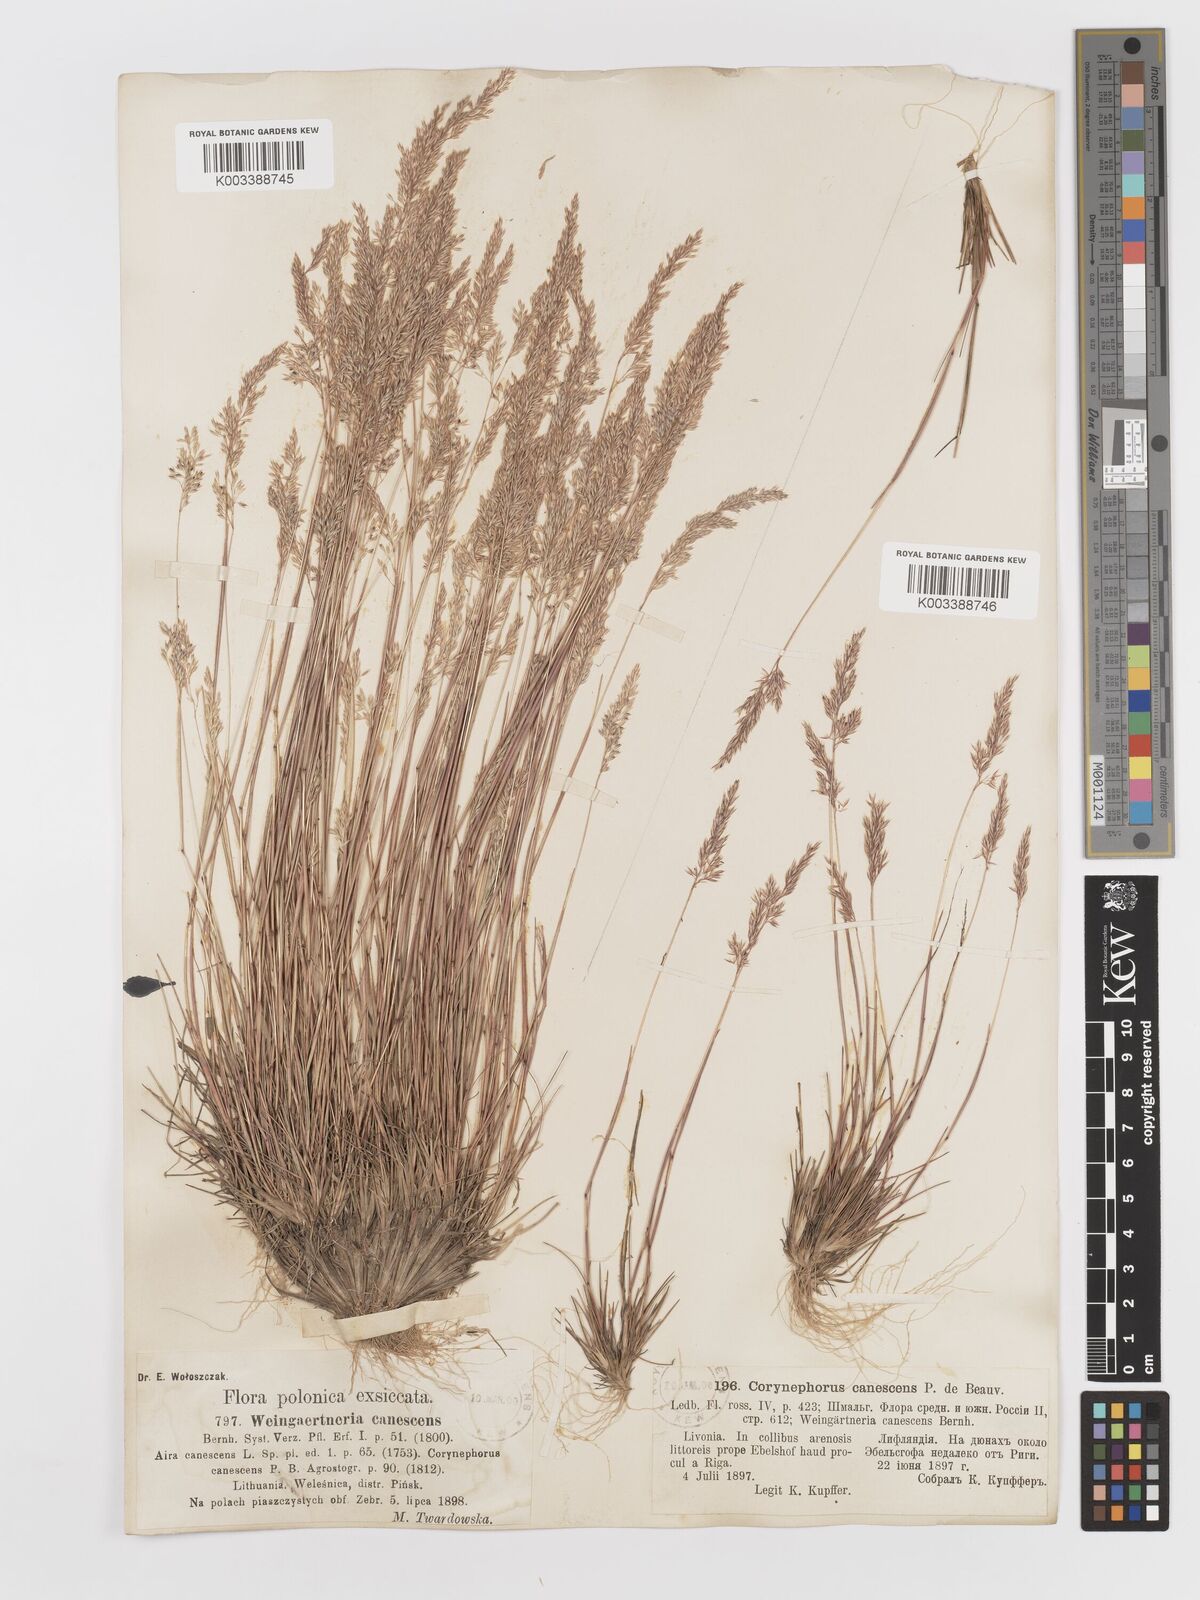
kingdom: Plantae
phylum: Tracheophyta
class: Liliopsida
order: Poales
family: Poaceae
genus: Corynephorus
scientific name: Corynephorus canescens
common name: Grey hair-grass
